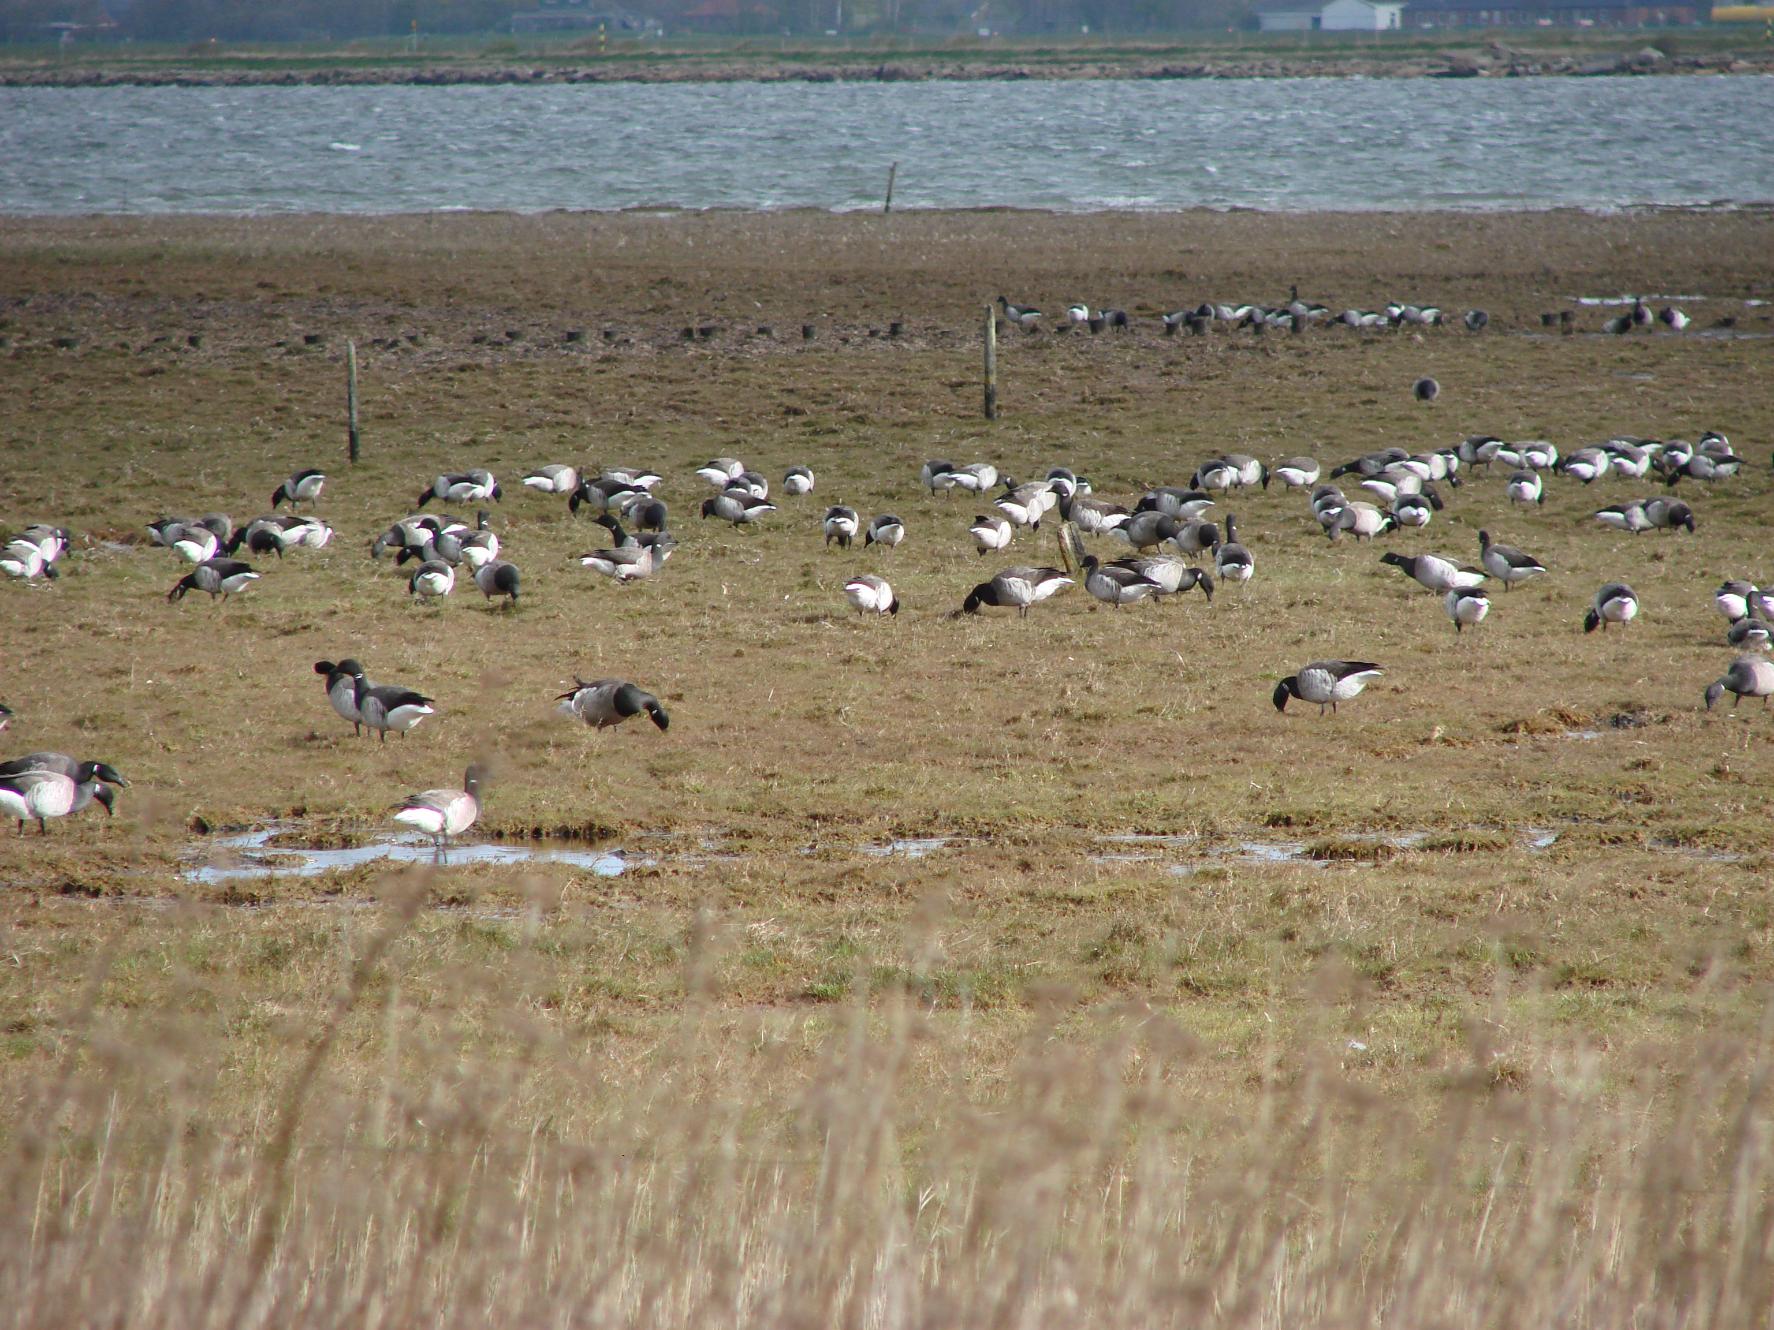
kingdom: Animalia
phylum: Chordata
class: Aves
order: Anseriformes
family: Anatidae
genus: Branta
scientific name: Branta bernicla
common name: Lysbuget knortegås
